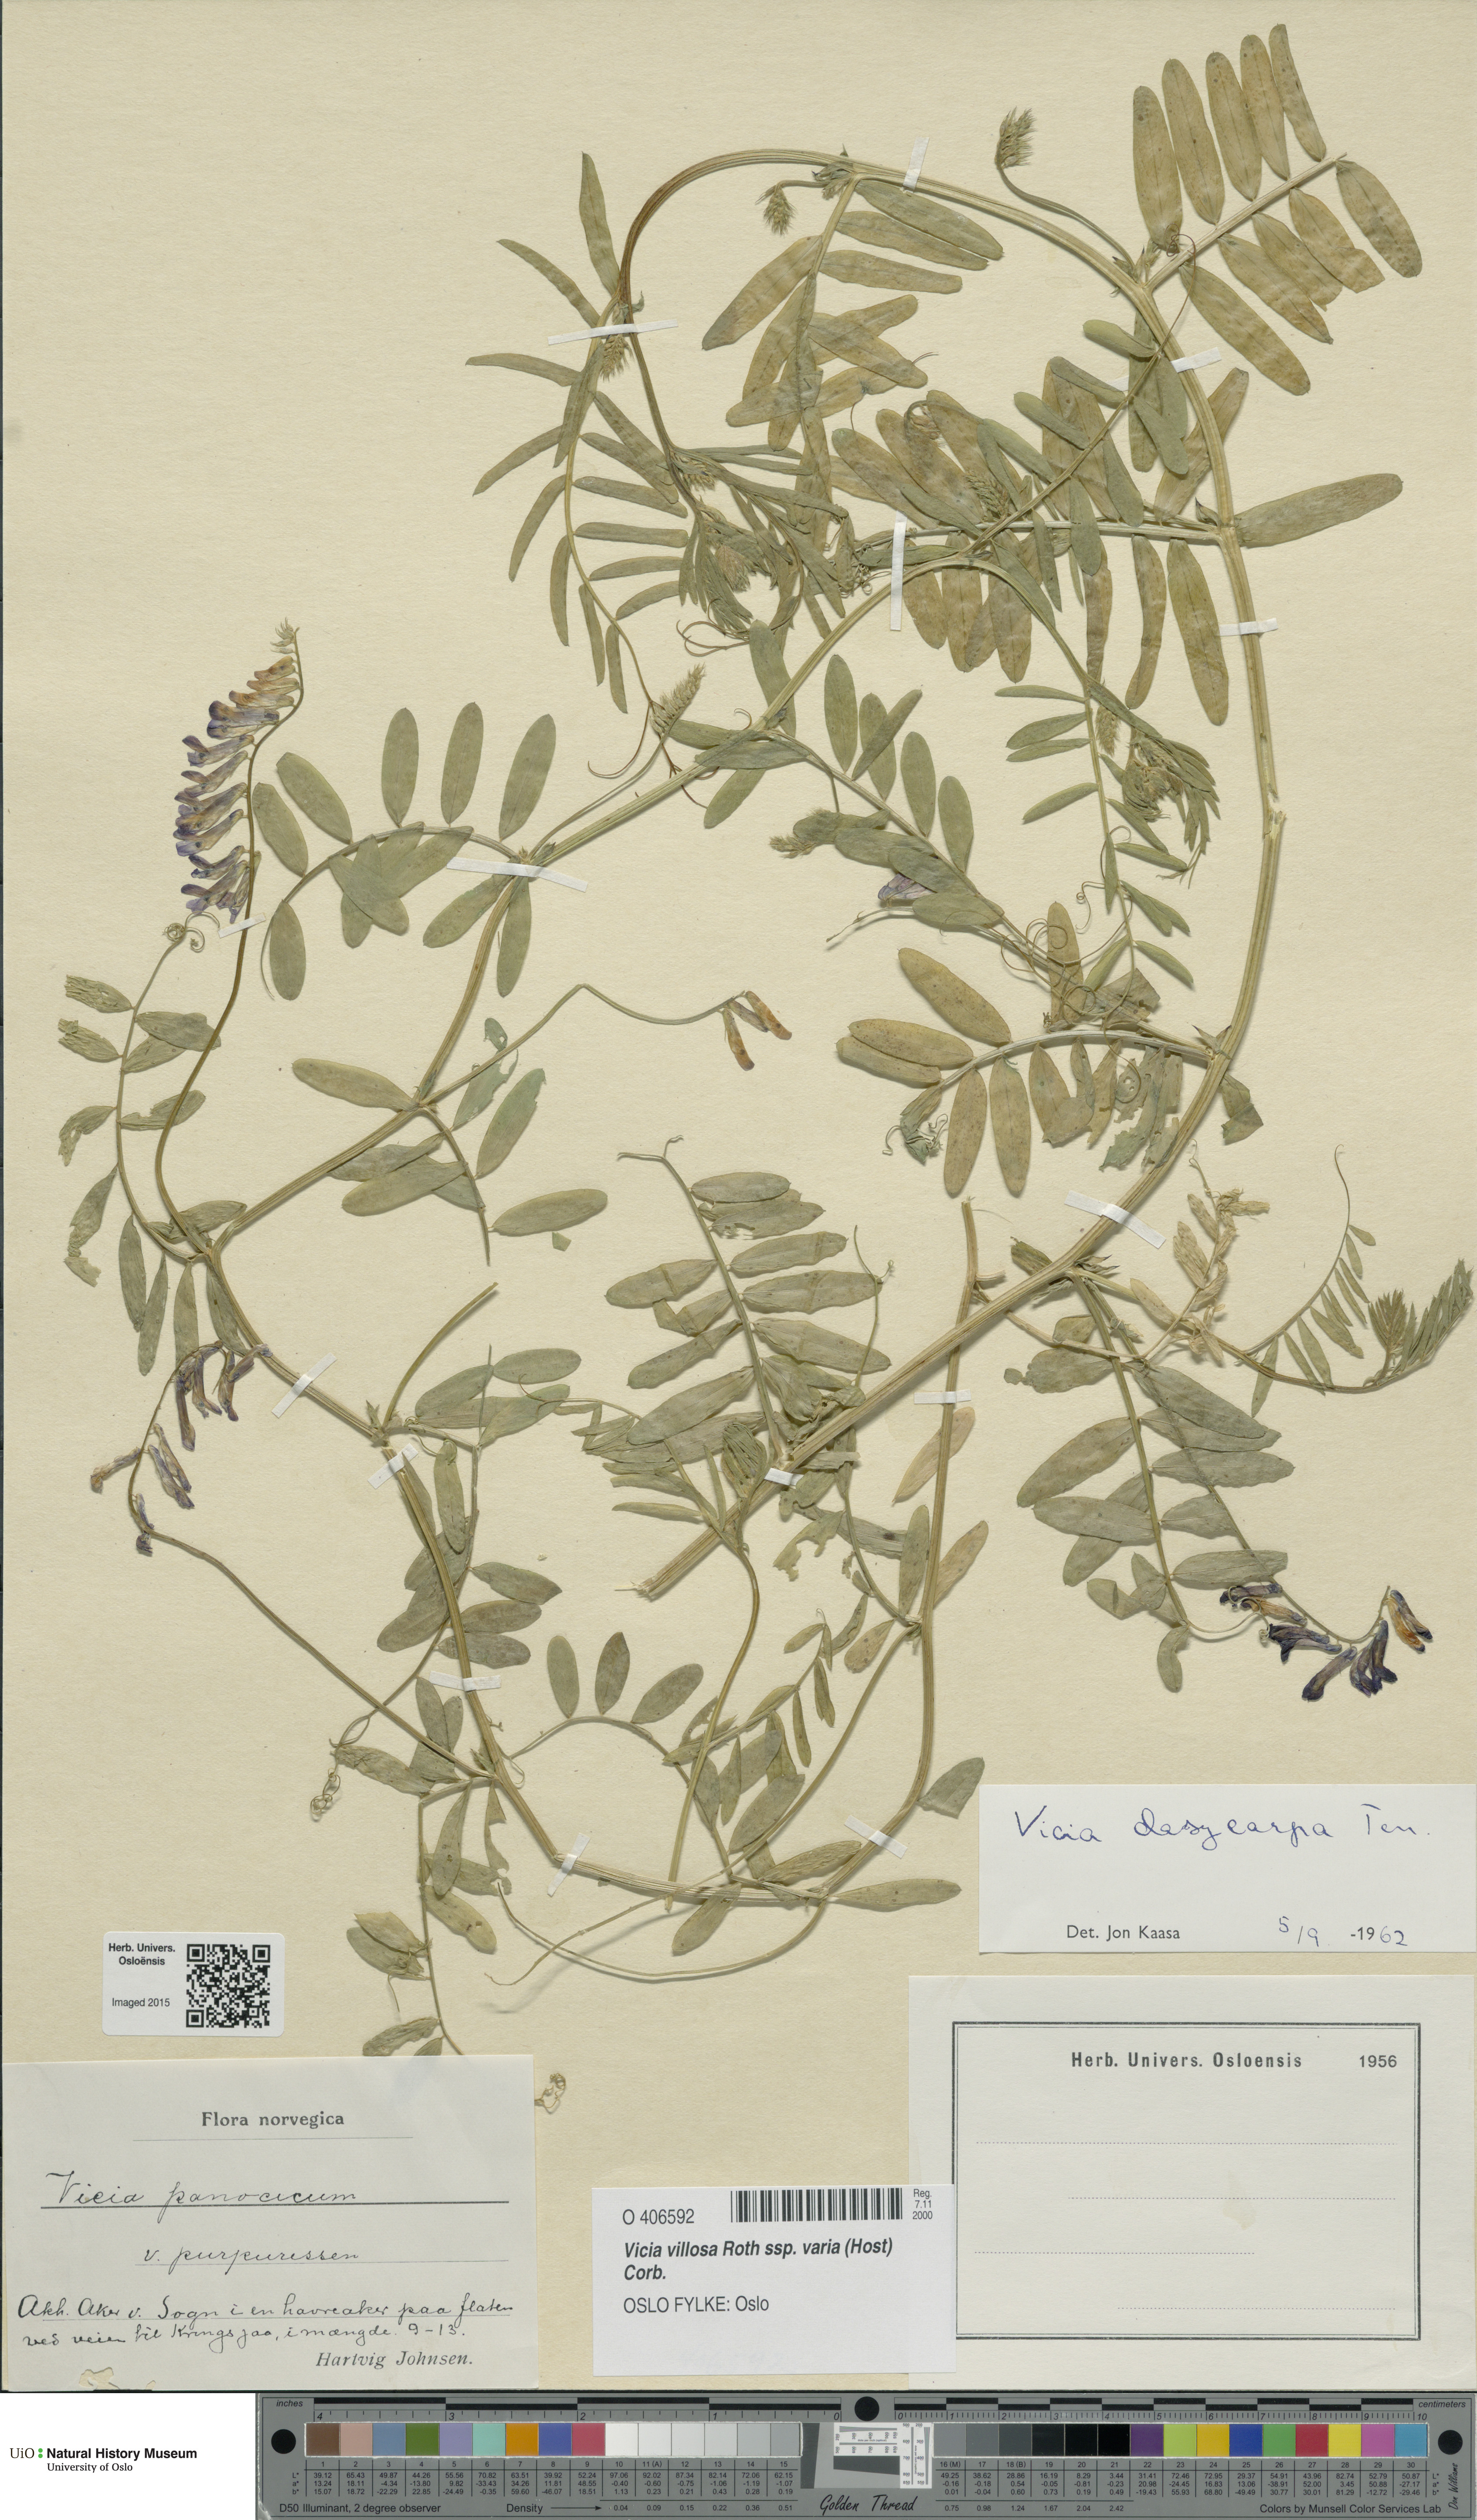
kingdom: Plantae
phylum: Tracheophyta
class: Magnoliopsida
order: Fabales
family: Fabaceae
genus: Vicia
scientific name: Vicia villosa
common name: Fodder vetch
